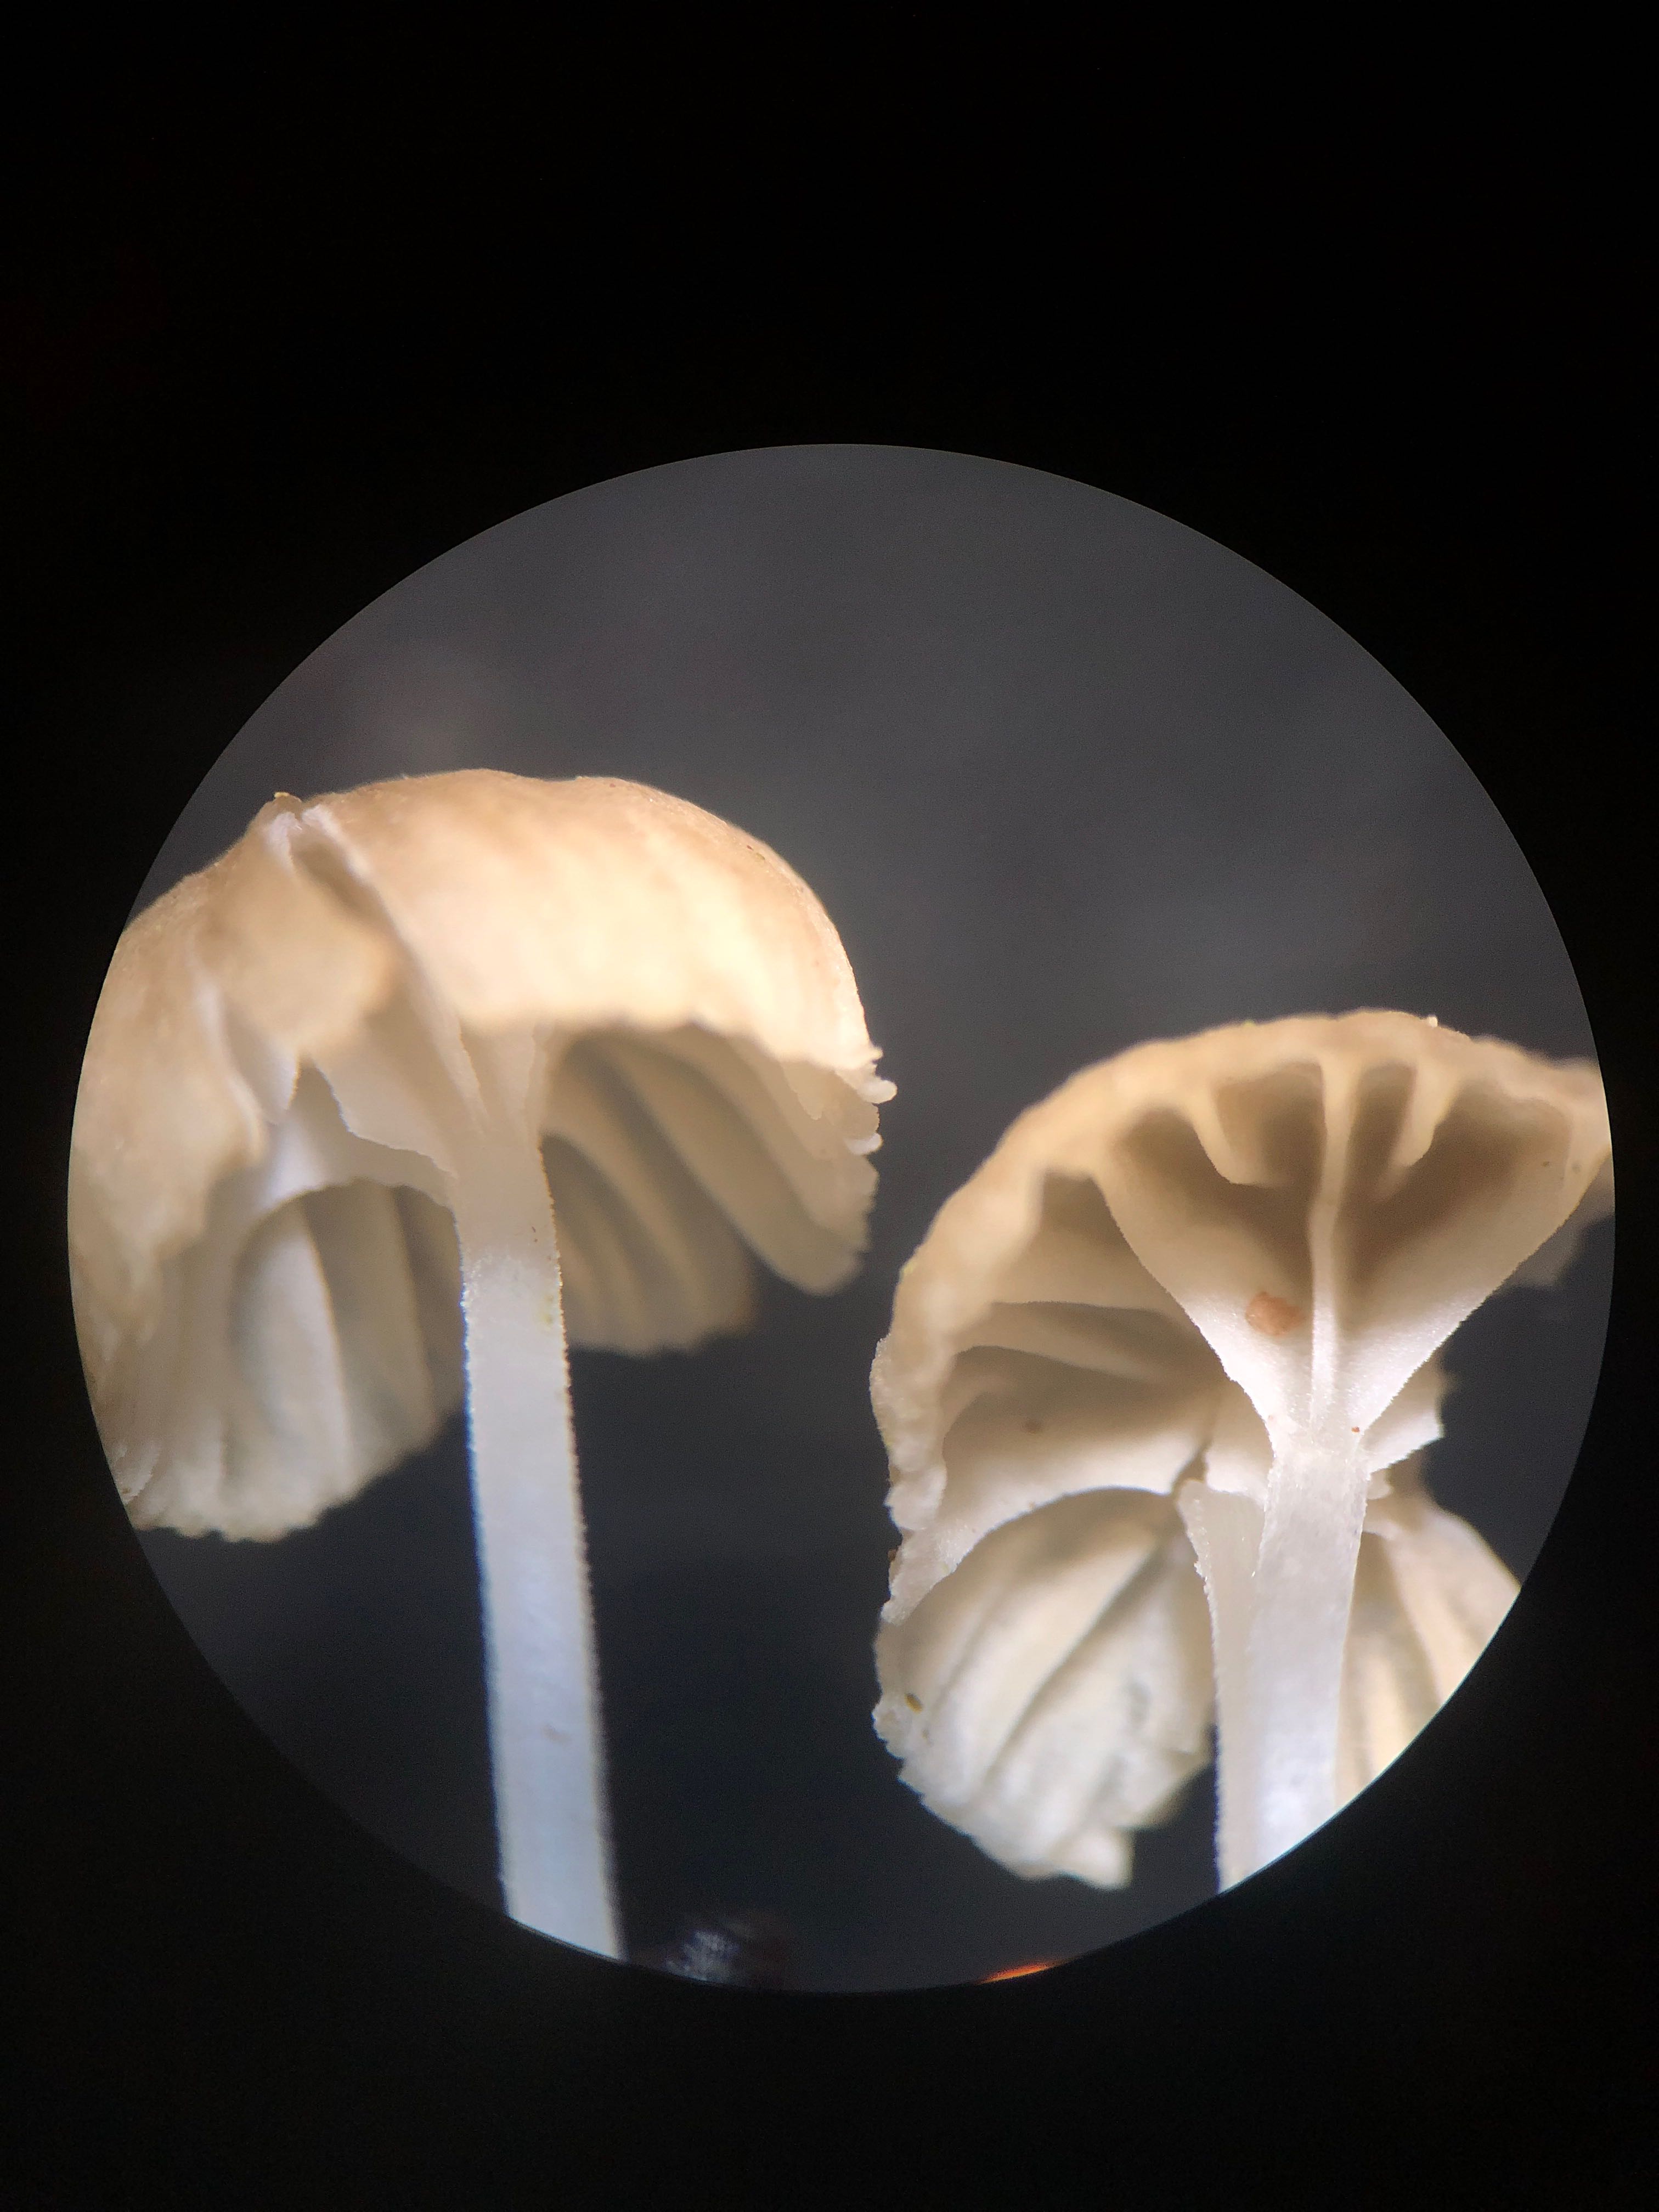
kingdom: Fungi
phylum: Basidiomycota
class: Agaricomycetes
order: Agaricales
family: Porotheleaceae
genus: Phloeomana
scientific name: Phloeomana speirea
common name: kvist-huesvamp
